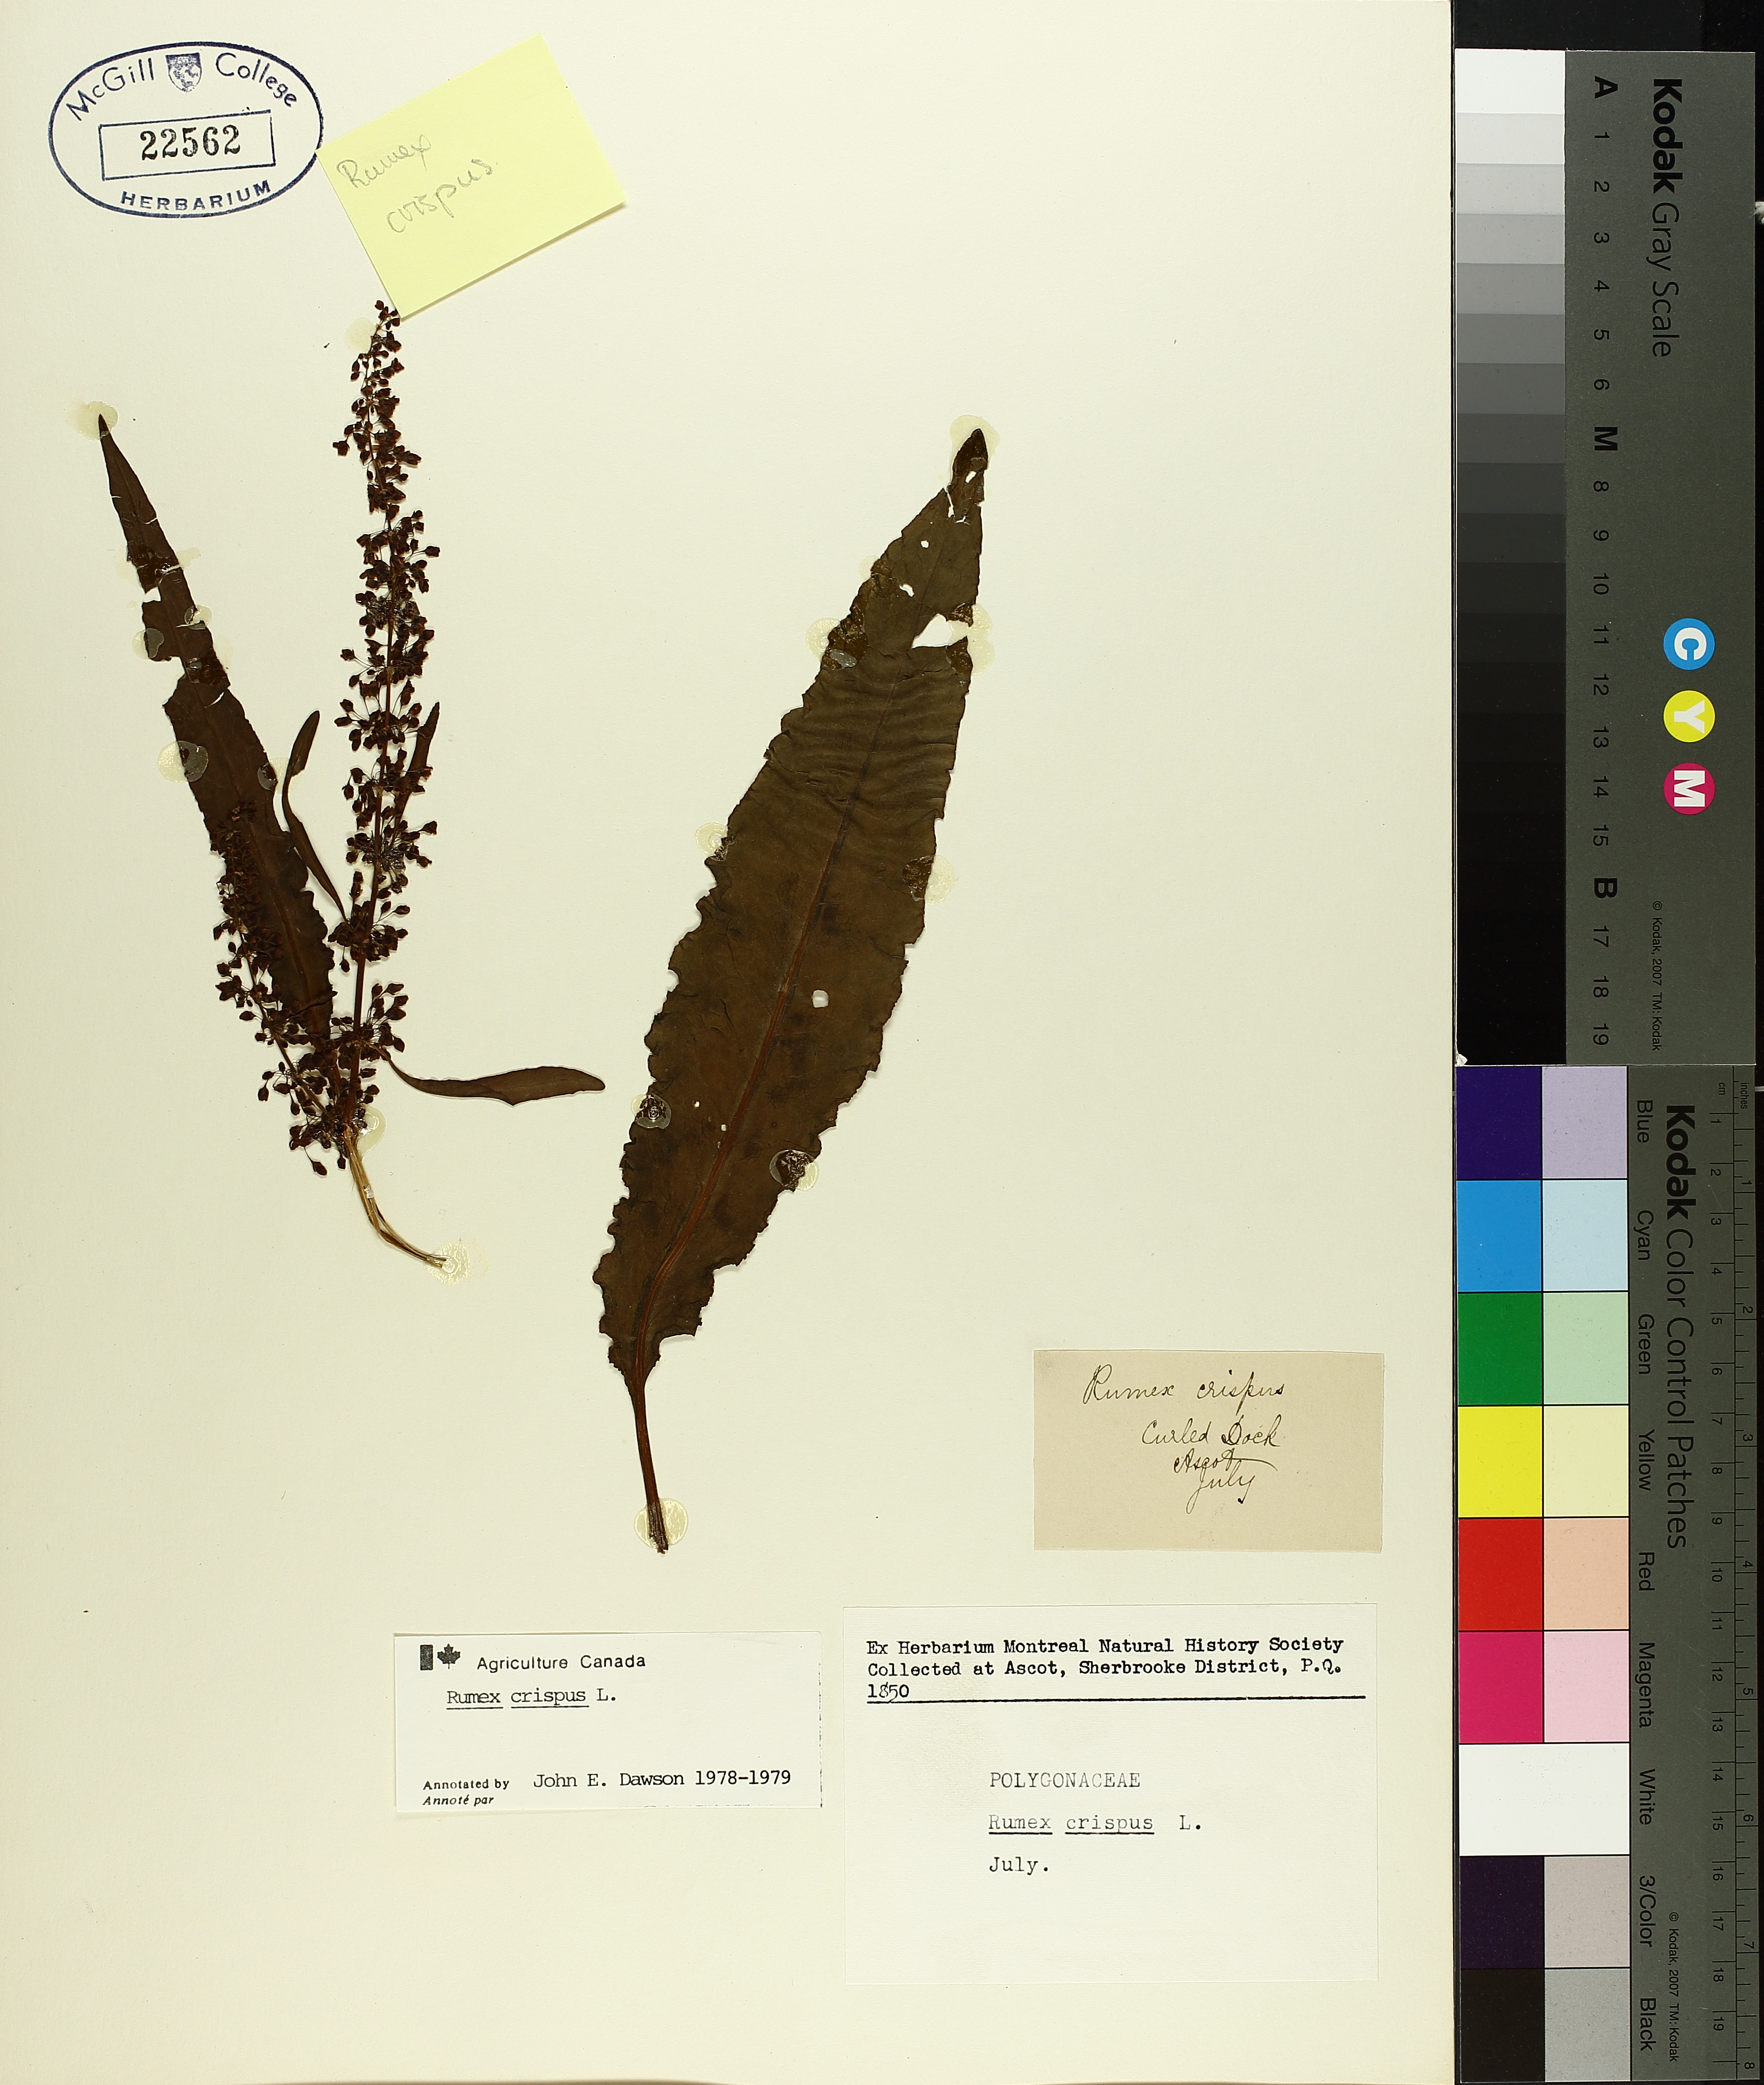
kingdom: Plantae
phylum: Tracheophyta
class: Magnoliopsida
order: Caryophyllales
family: Polygonaceae
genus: Rumex
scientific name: Rumex crispus
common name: Curled dock
